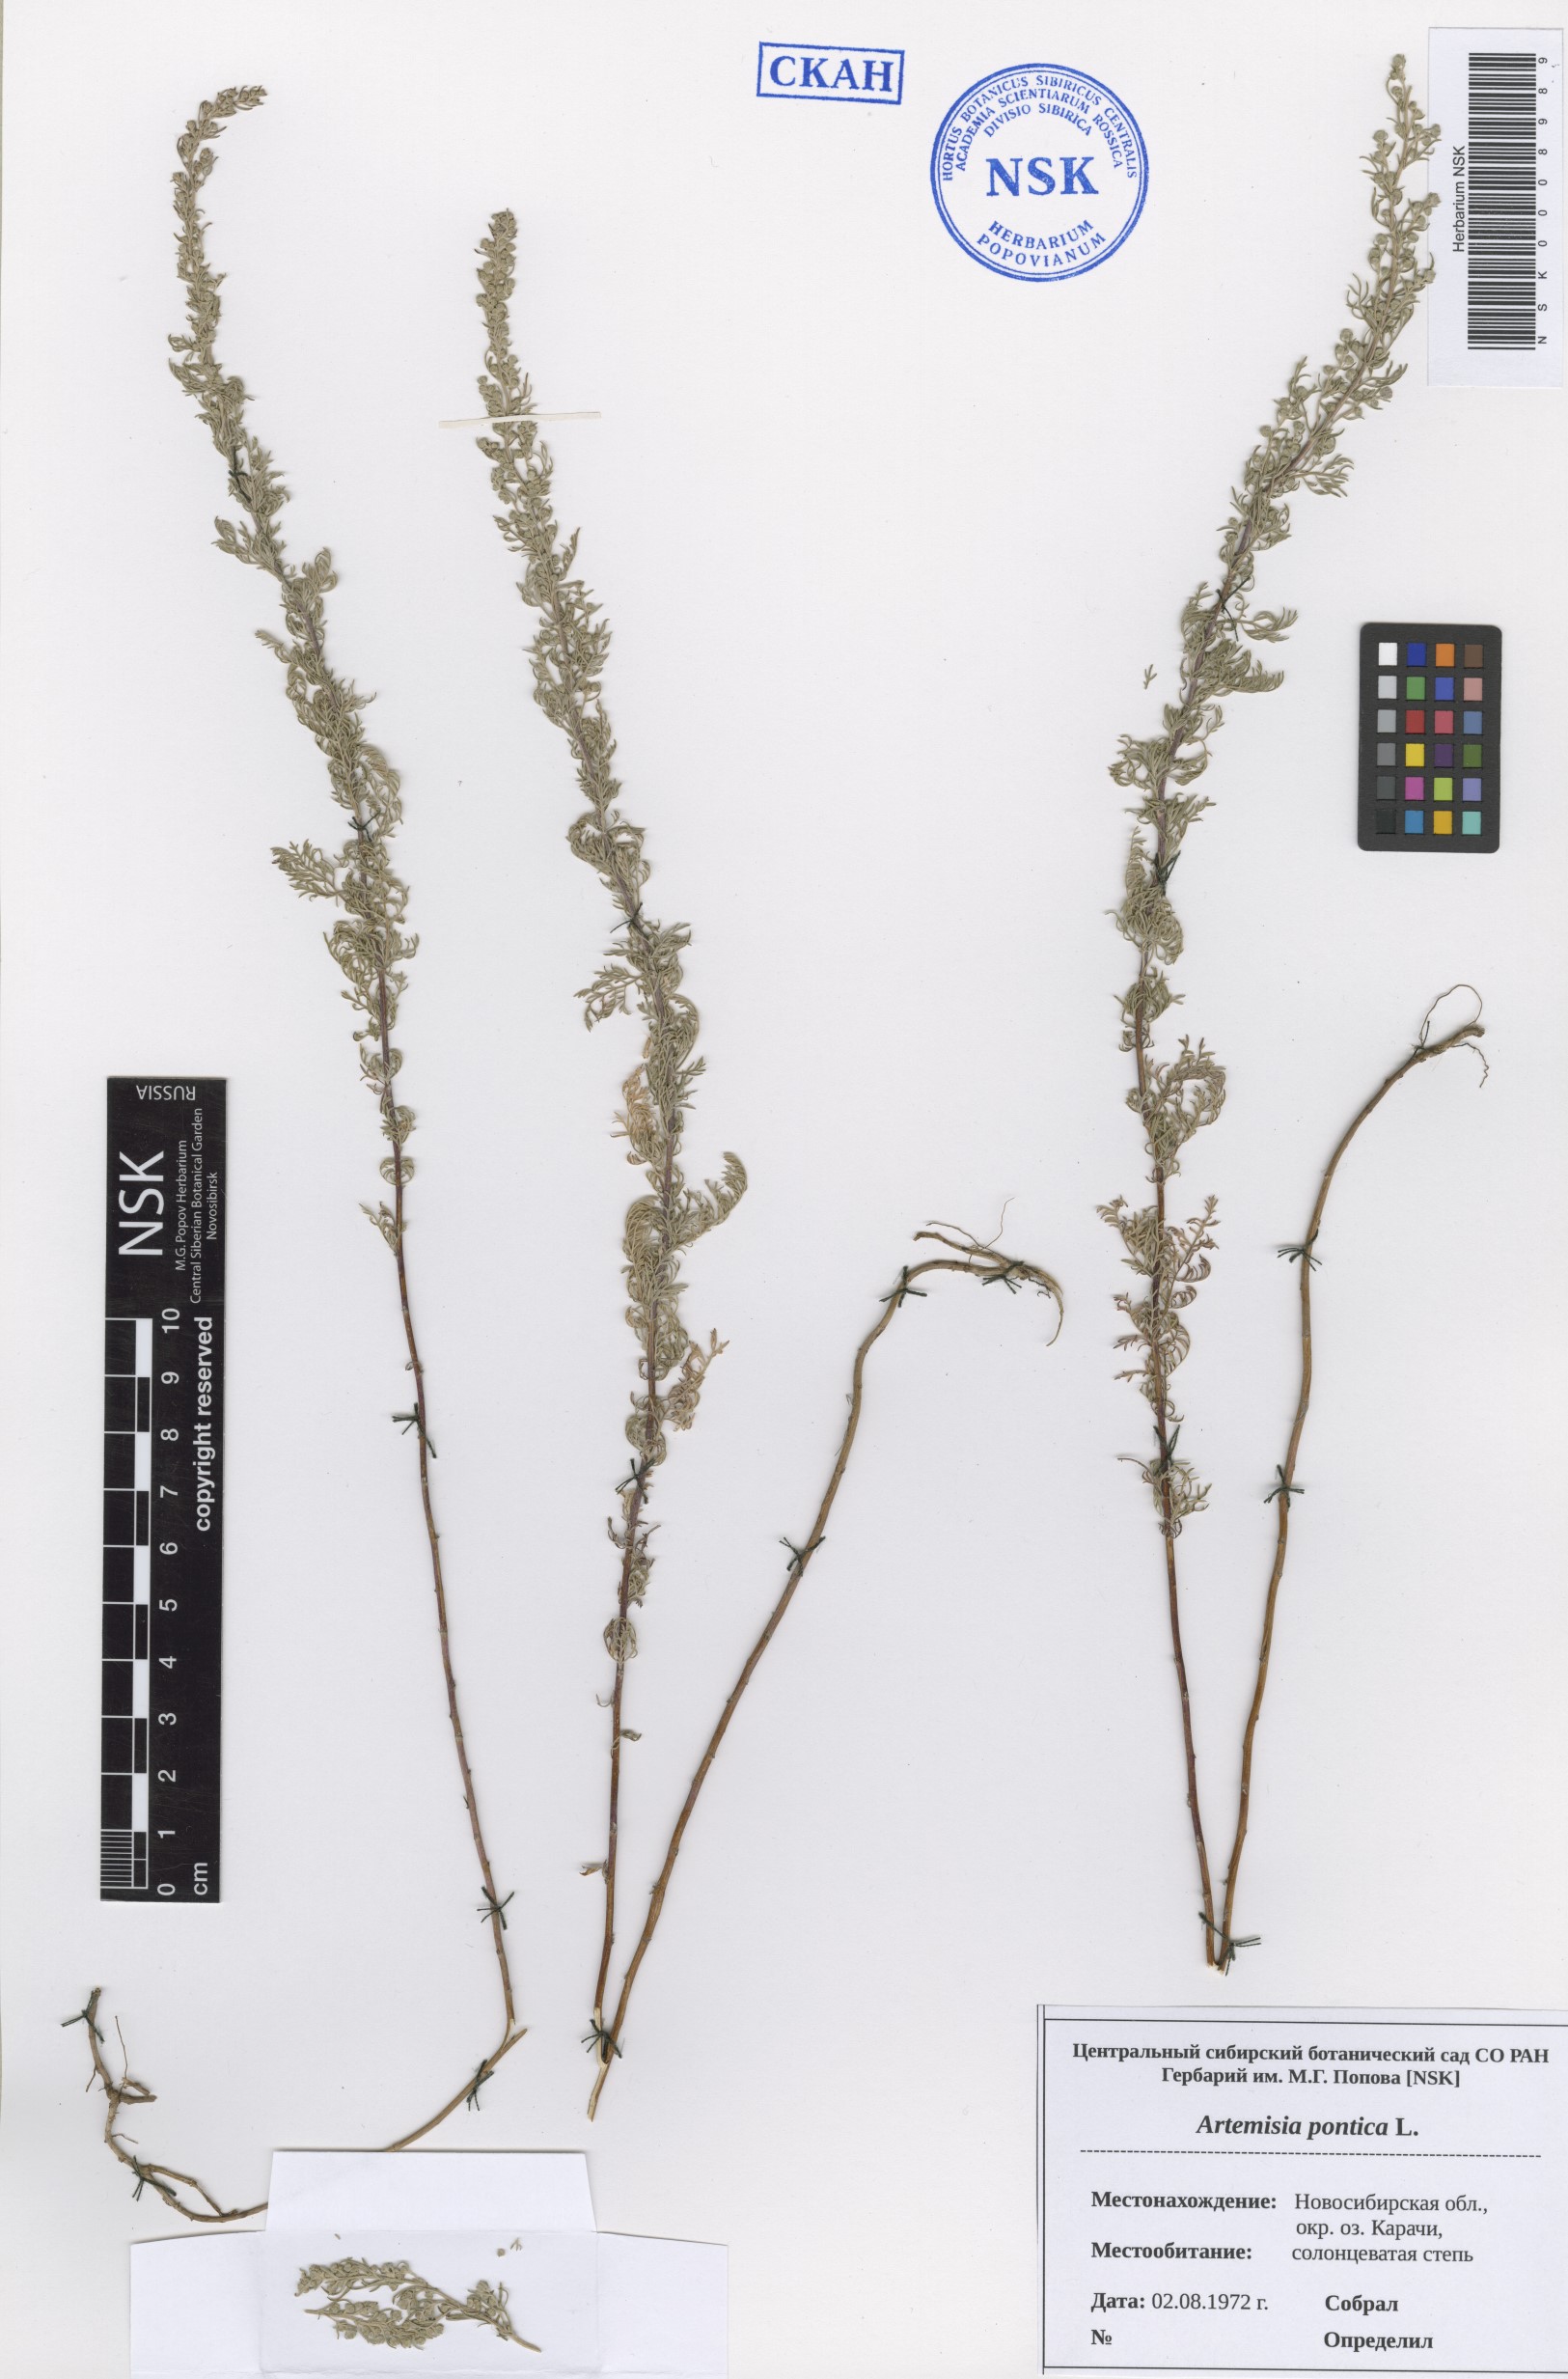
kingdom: Plantae
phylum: Tracheophyta
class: Magnoliopsida
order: Asterales
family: Asteraceae
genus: Artemisia
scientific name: Artemisia pontica
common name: Roman wormwood
